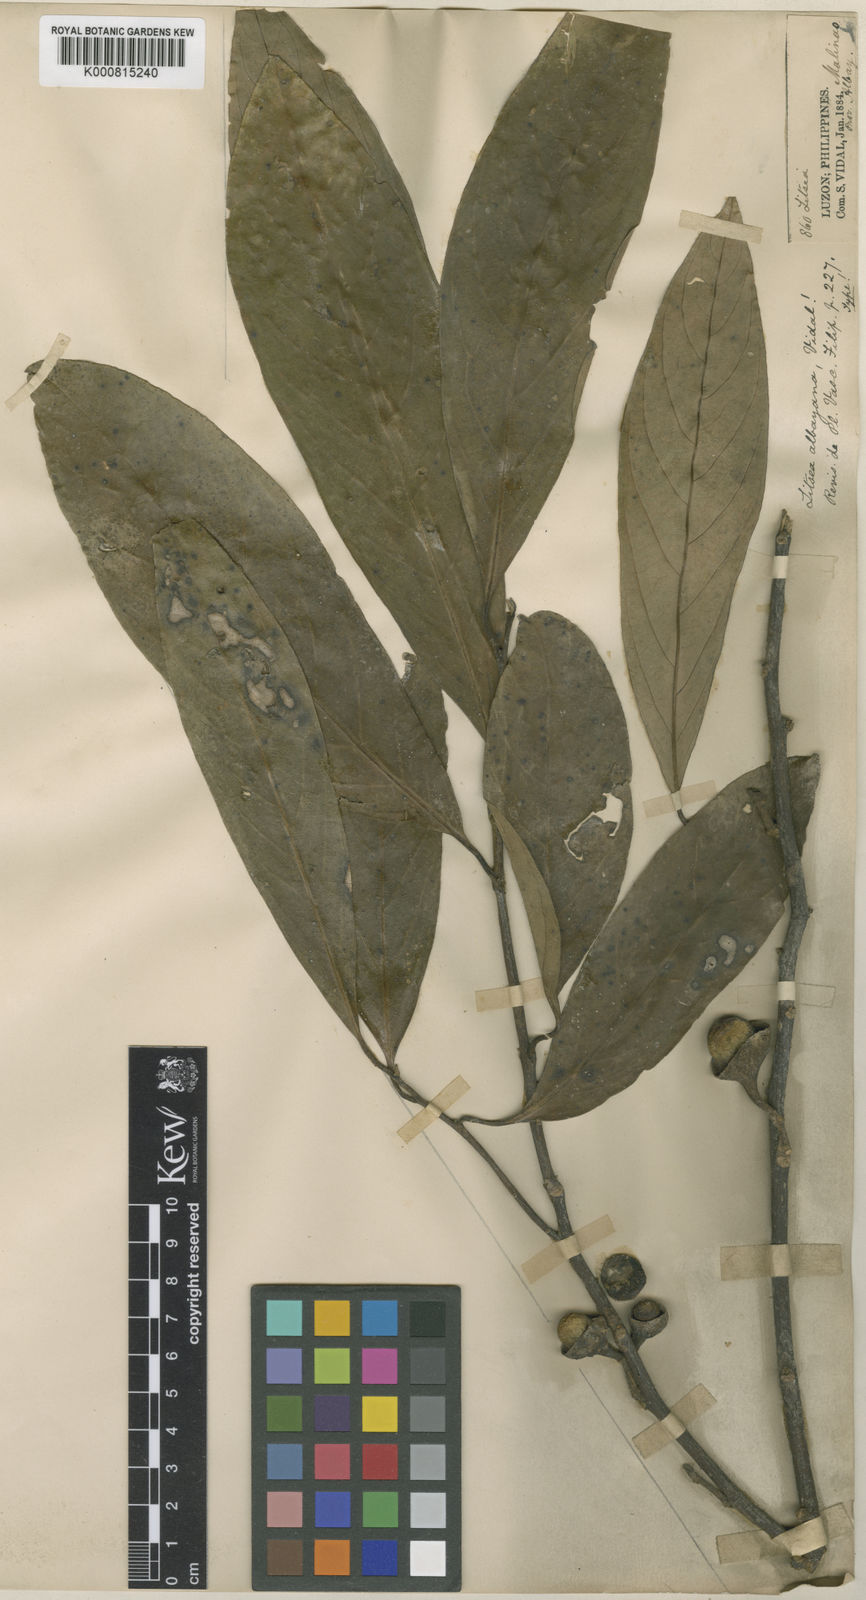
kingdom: Plantae
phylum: Tracheophyta
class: Magnoliopsida
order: Laurales
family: Lauraceae
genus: Litsea
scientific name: Litsea albayana
